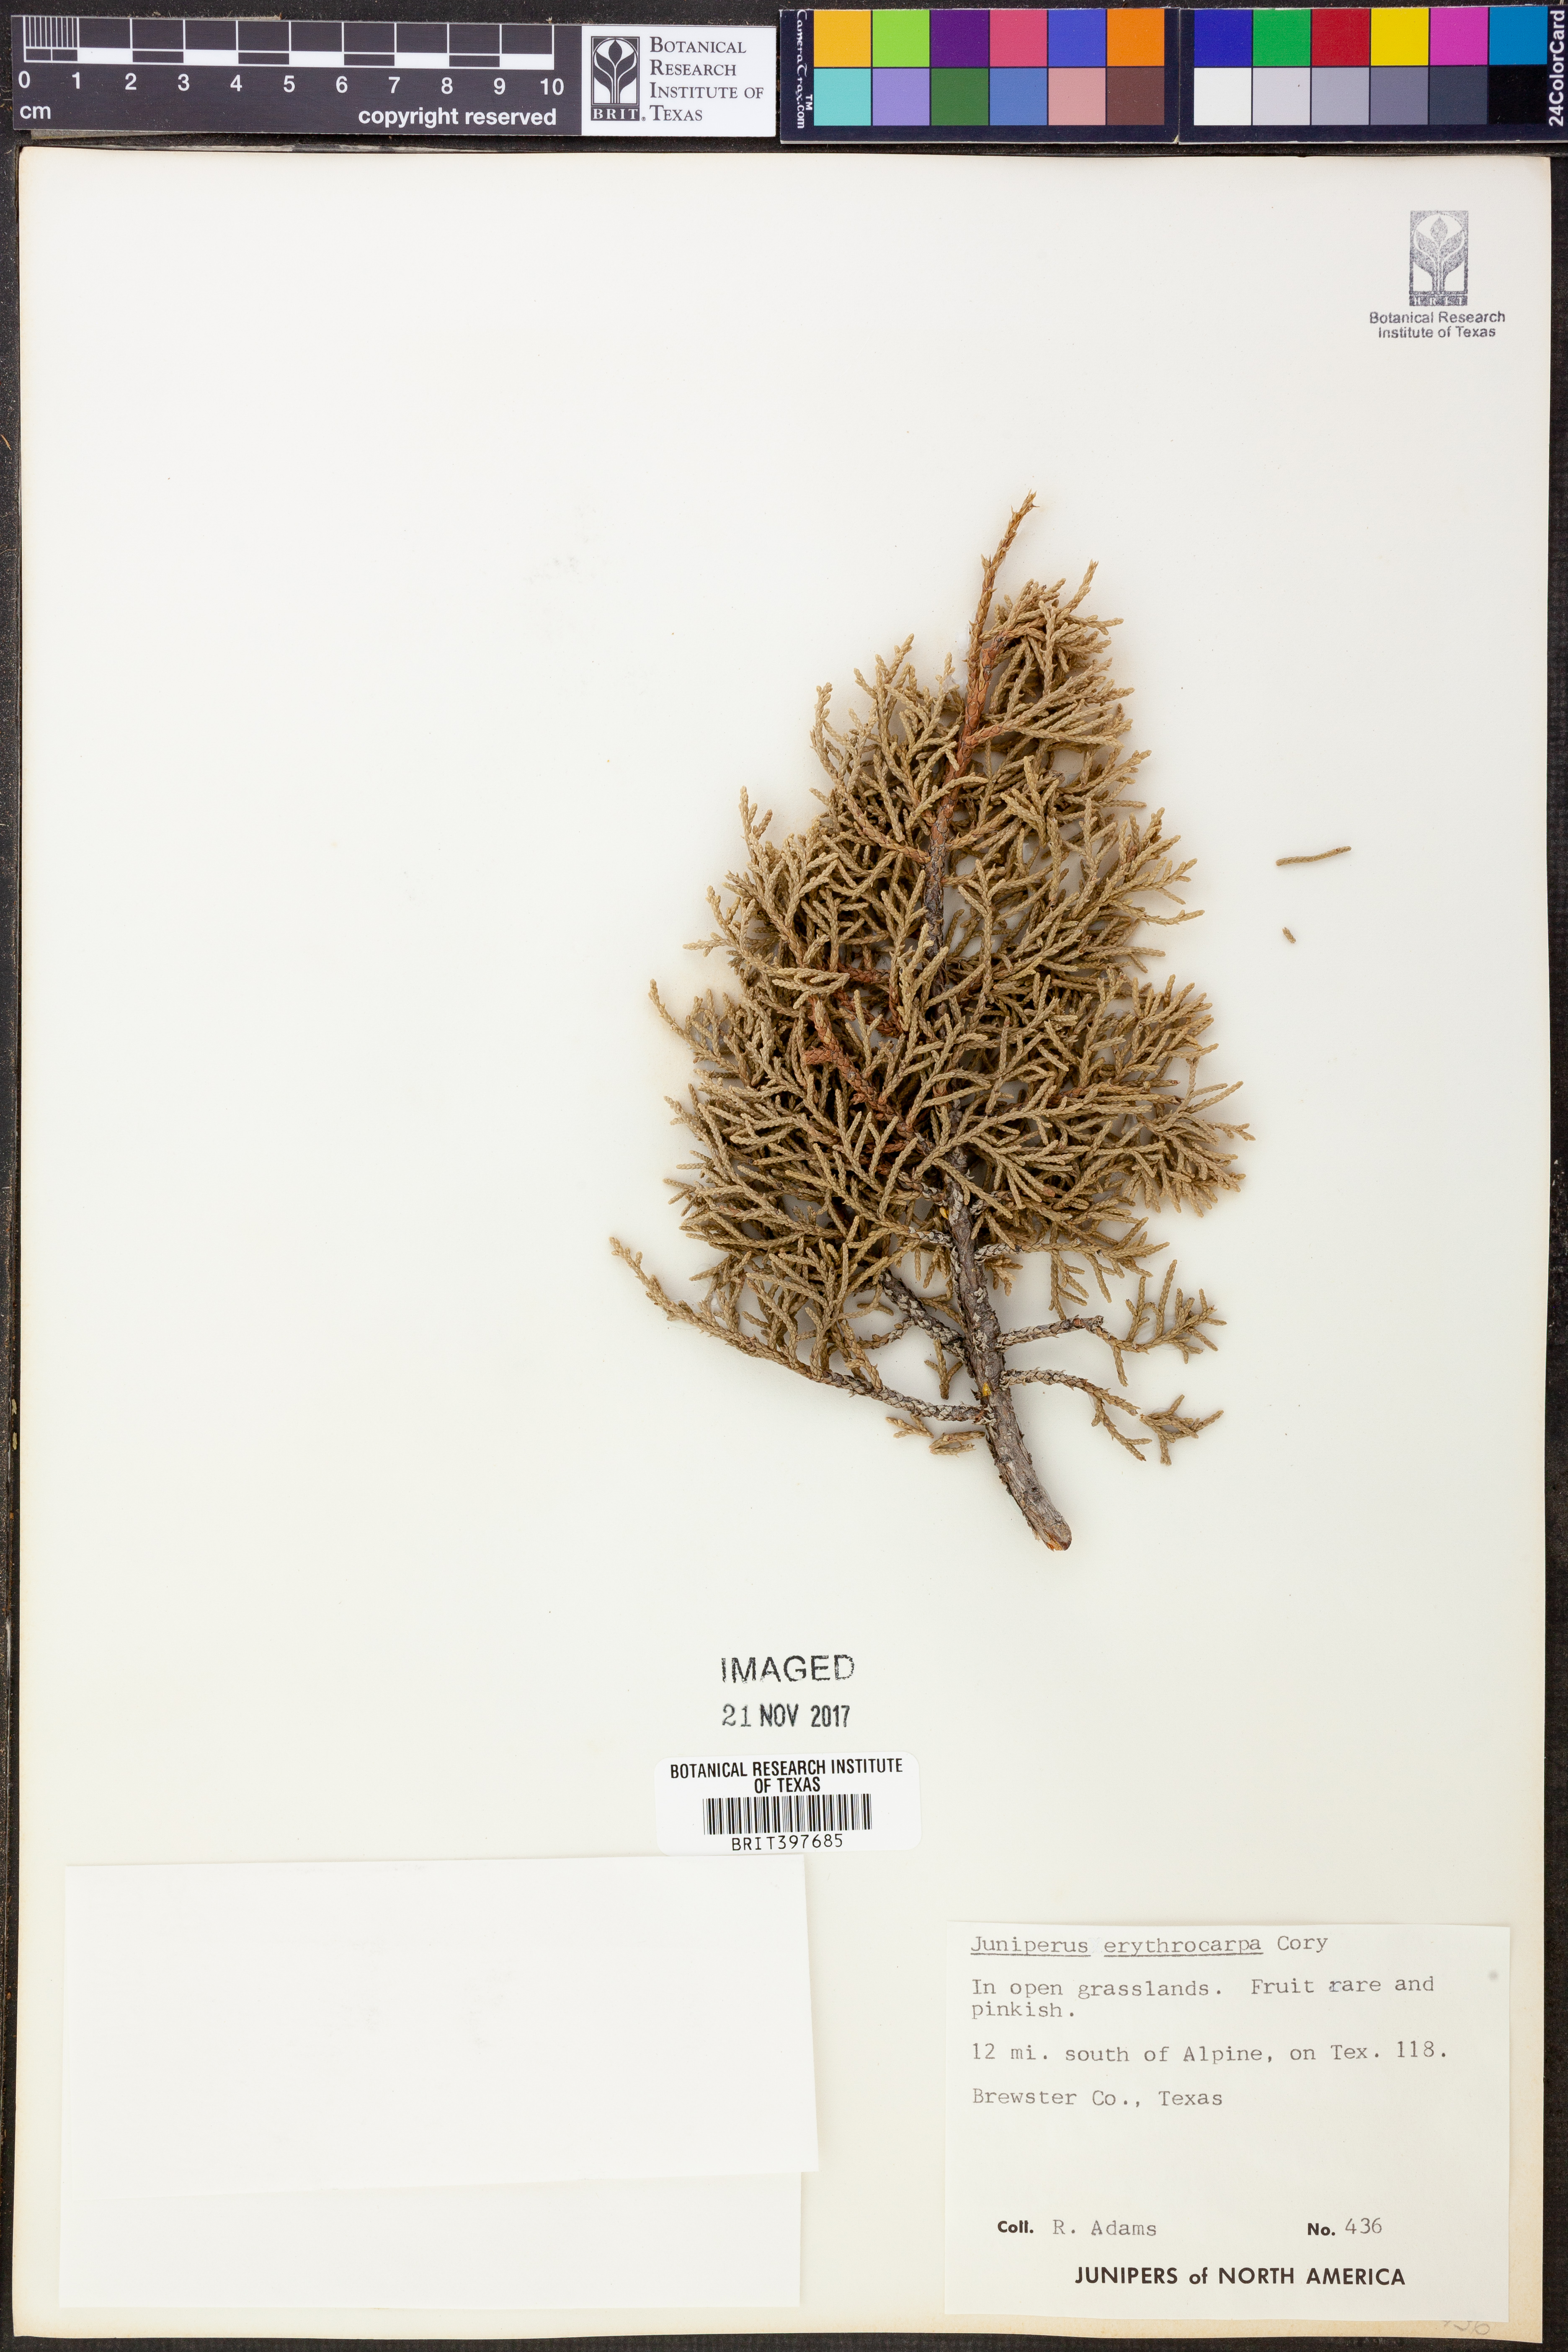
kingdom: Plantae
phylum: Tracheophyta
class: Pinopsida
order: Pinales
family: Cupressaceae
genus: Juniperus
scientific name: Juniperus pinchotii
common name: Pinchot juniper
